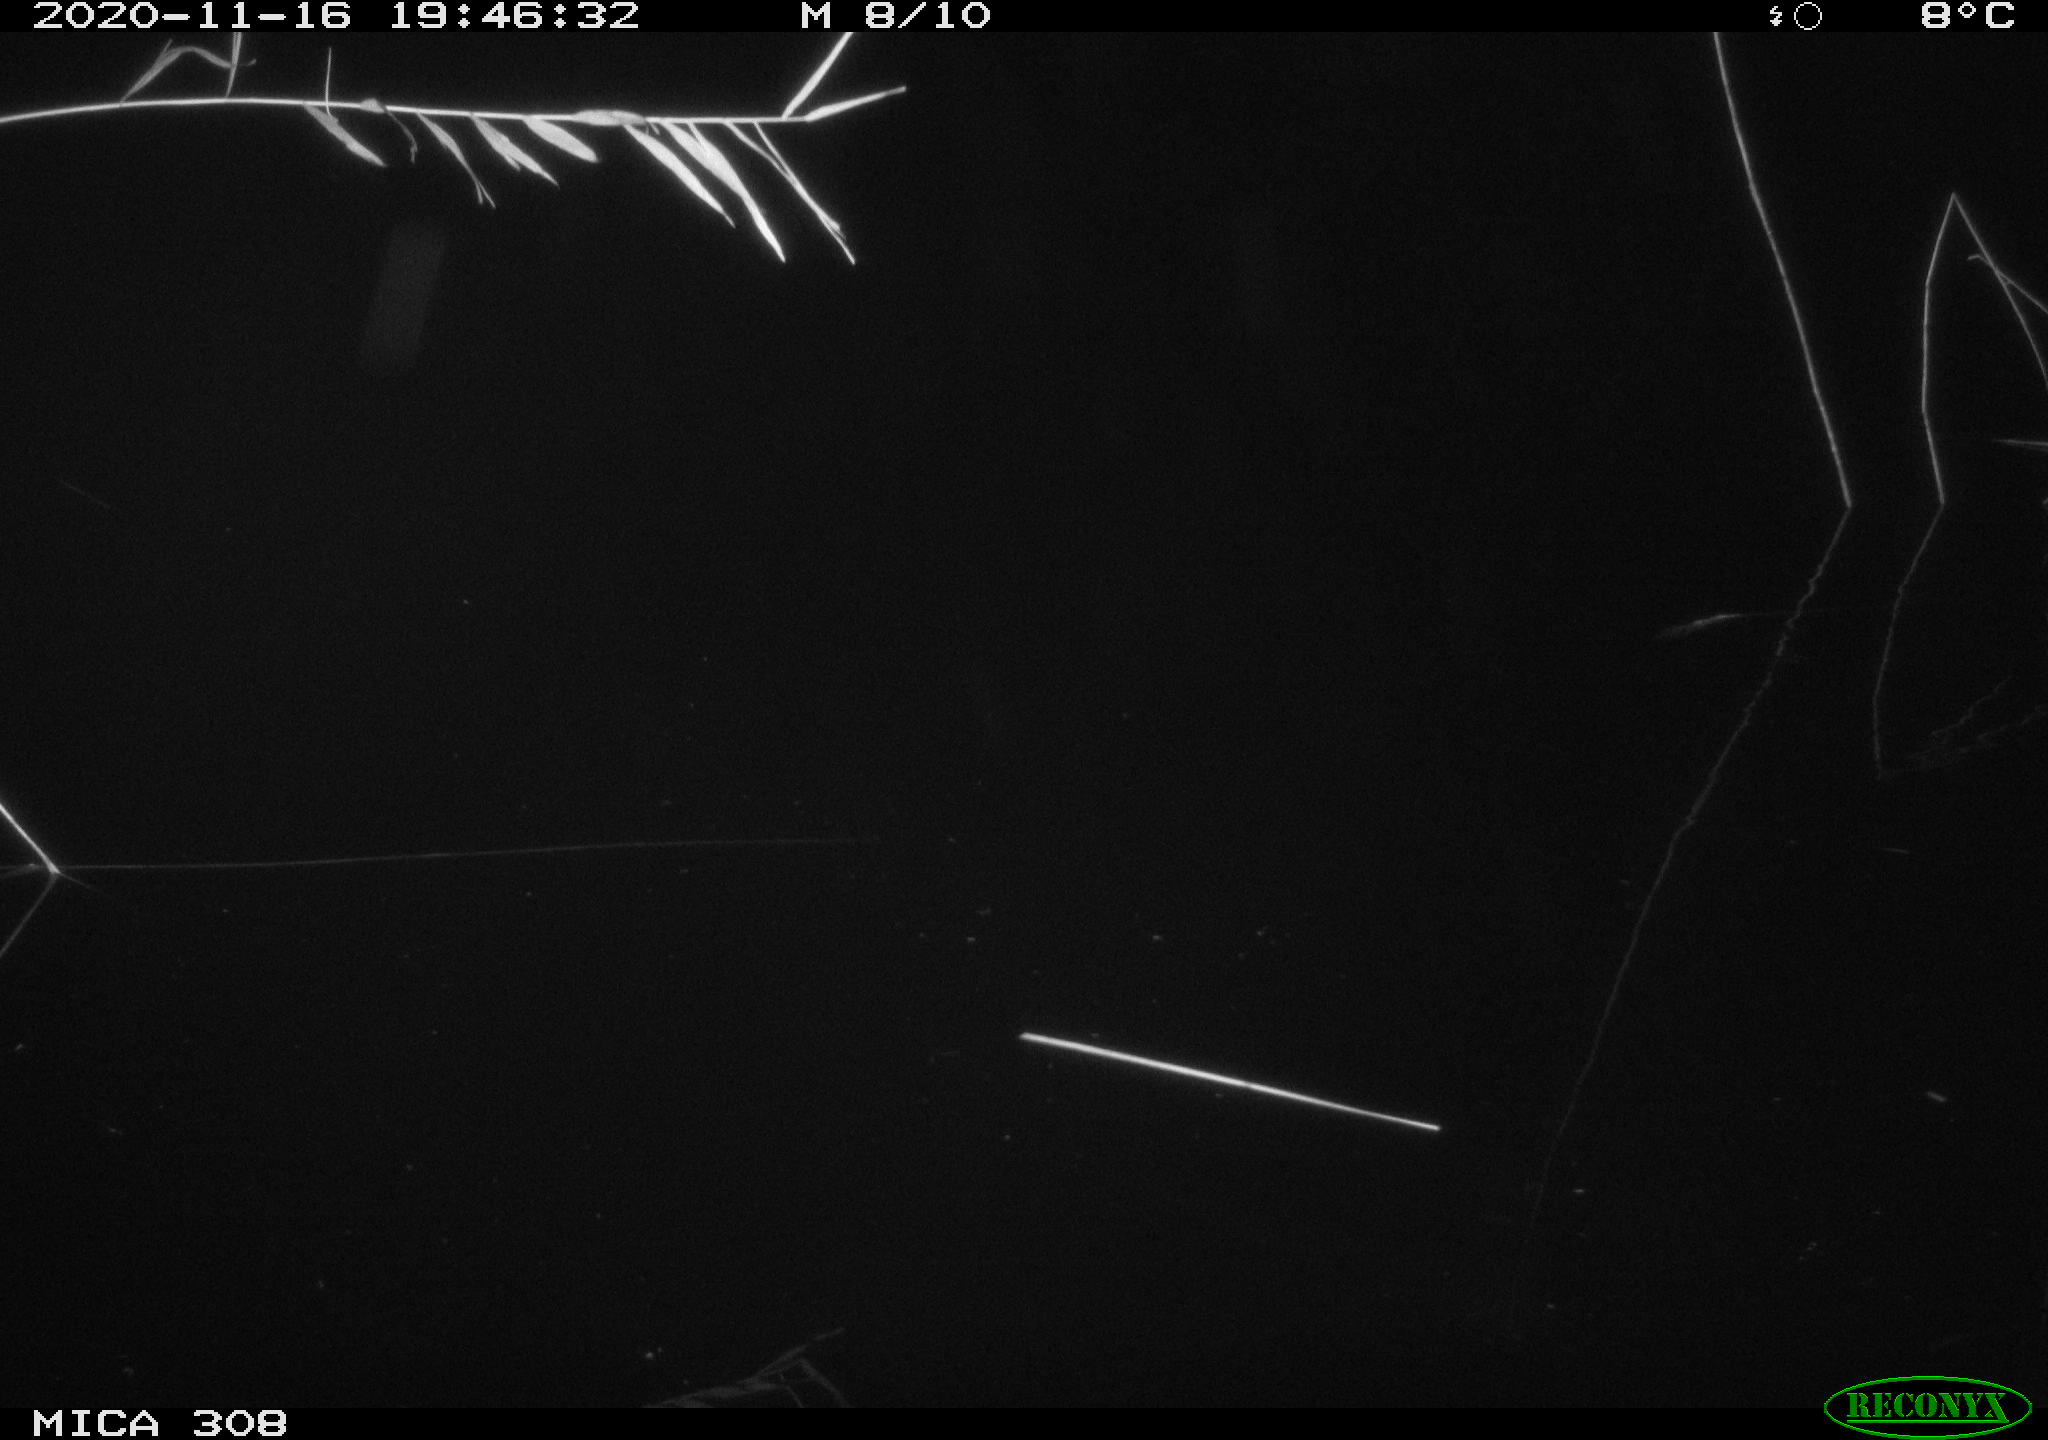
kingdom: Animalia
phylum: Chordata
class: Aves
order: Gruiformes
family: Rallidae
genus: Fulica
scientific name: Fulica atra
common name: Eurasian coot
